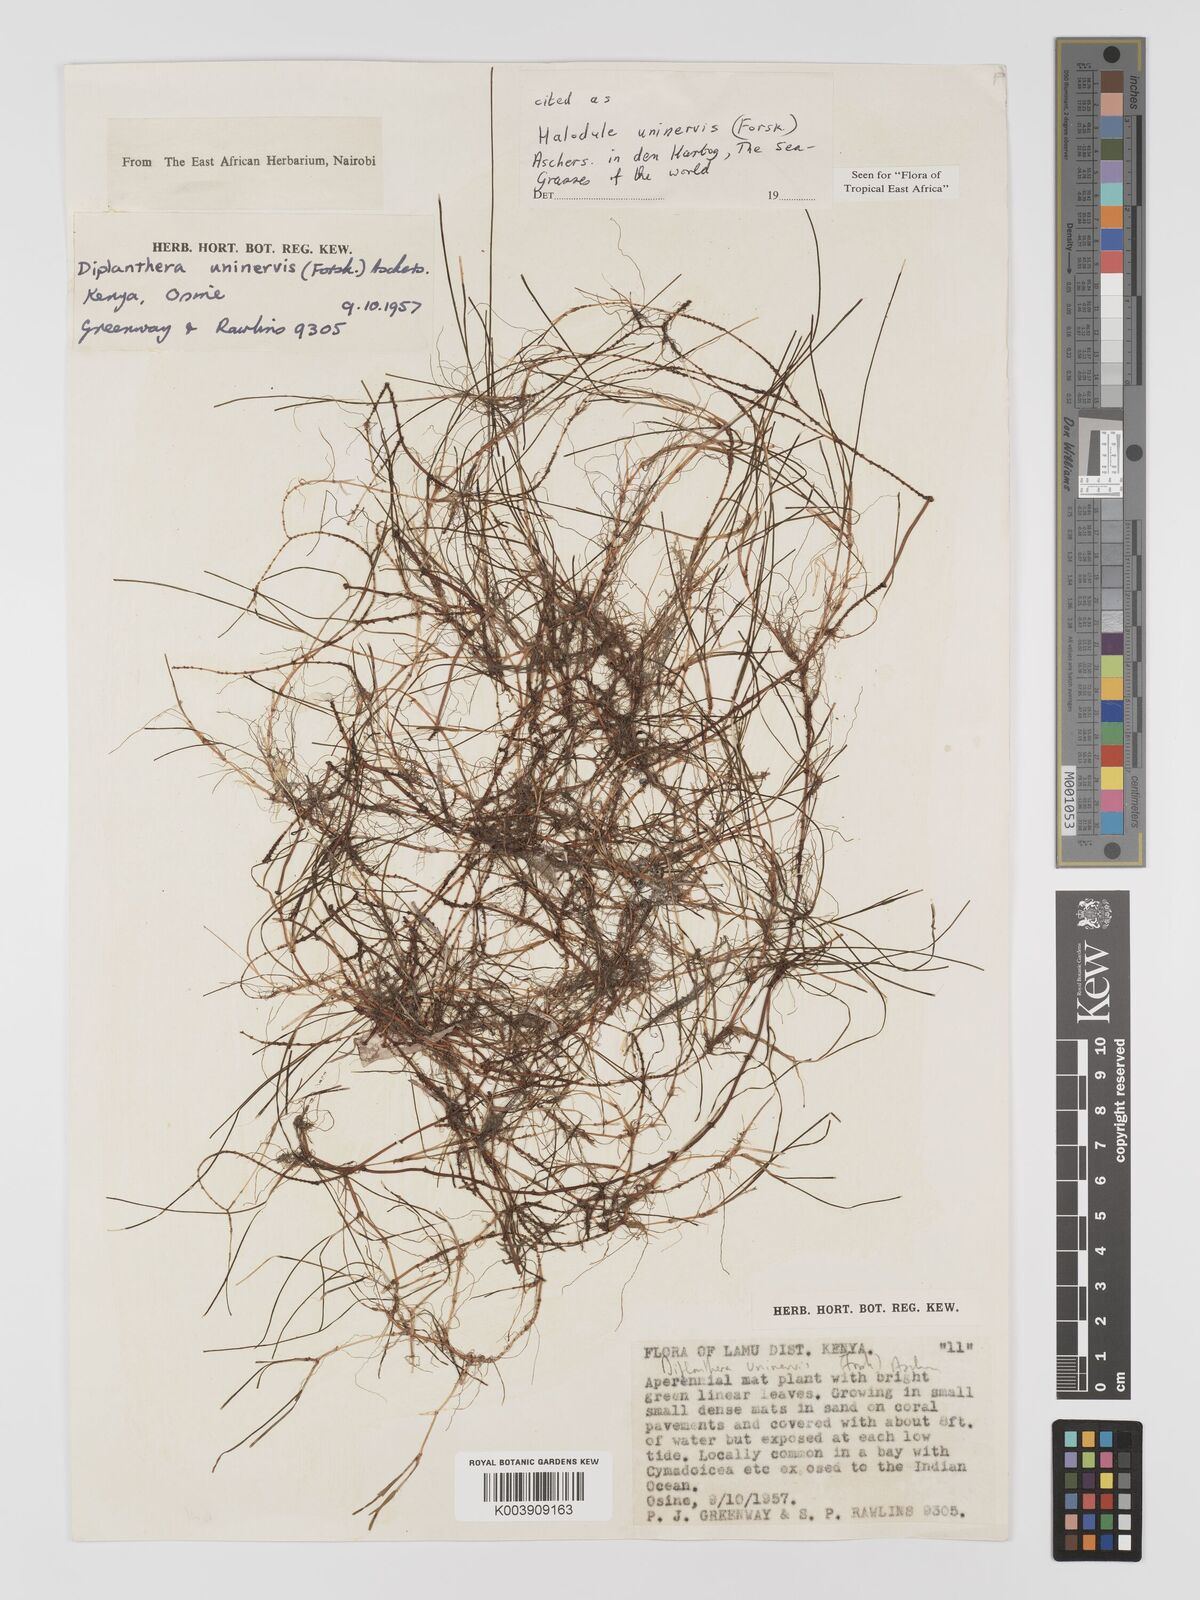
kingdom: Plantae
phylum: Tracheophyta
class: Liliopsida
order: Alismatales
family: Cymodoceaceae
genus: Halodule
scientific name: Halodule uninervis
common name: Narrowleaf seagrass
